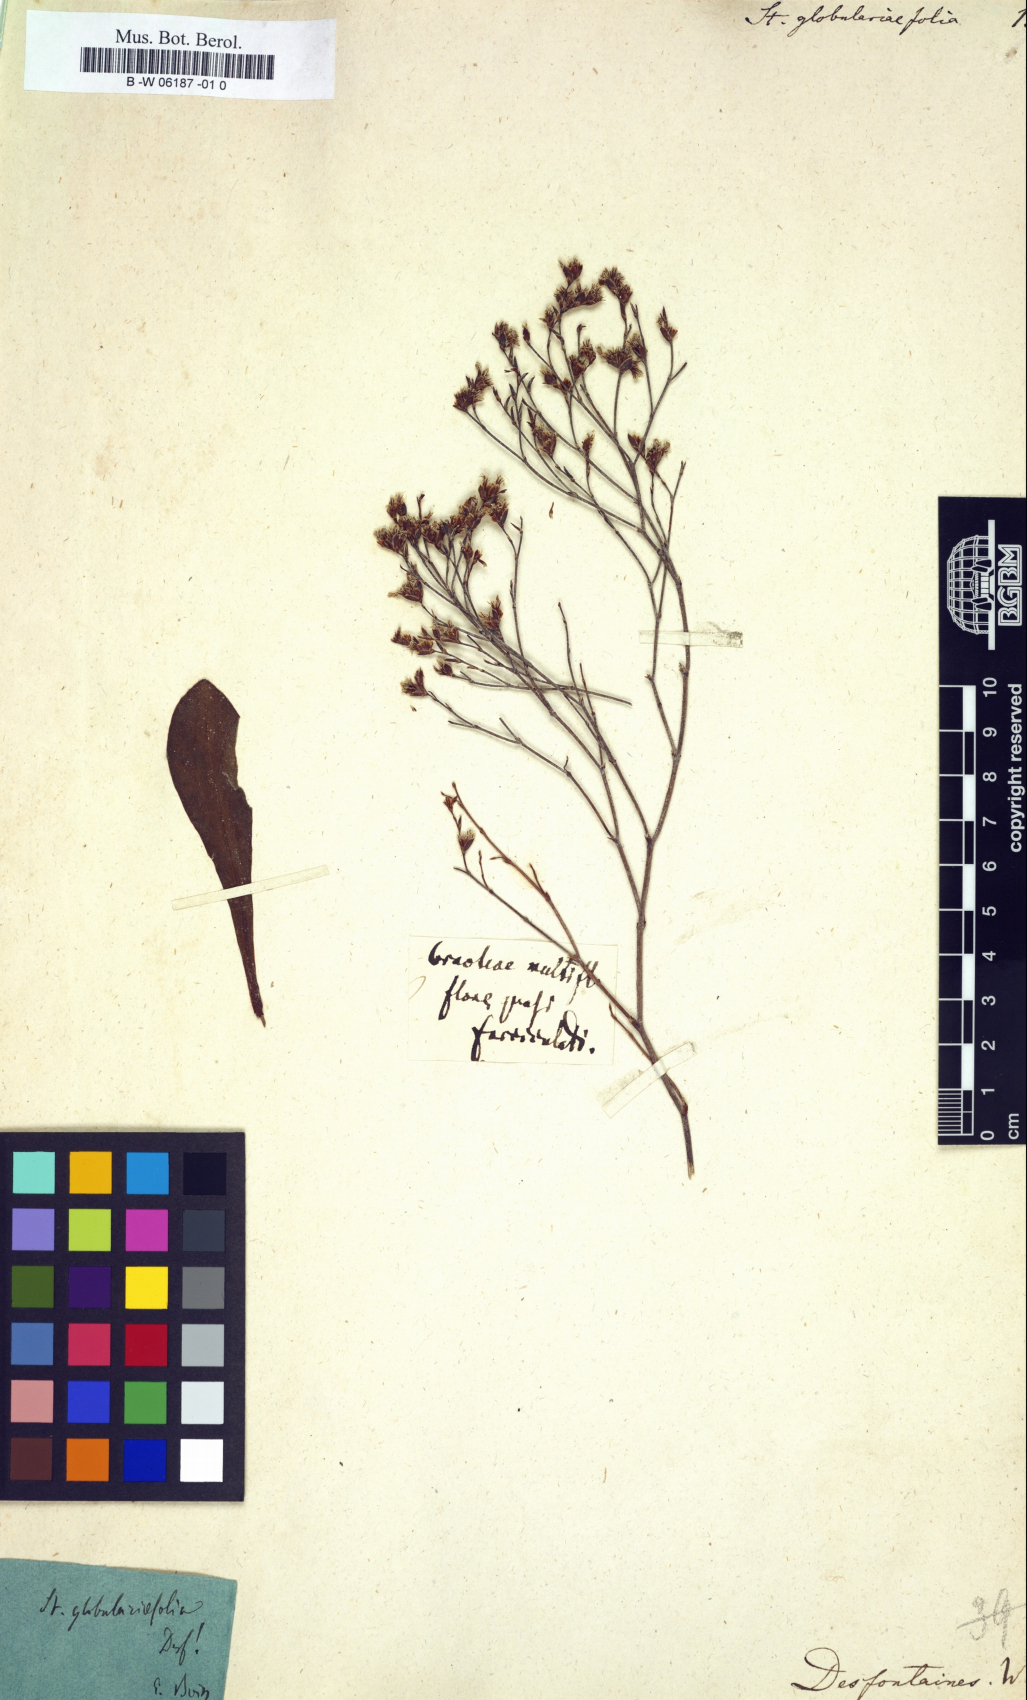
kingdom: Plantae
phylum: Tracheophyta
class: Magnoliopsida
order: Caryophyllales
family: Plumbaginaceae
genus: Limonium
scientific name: Limonium
